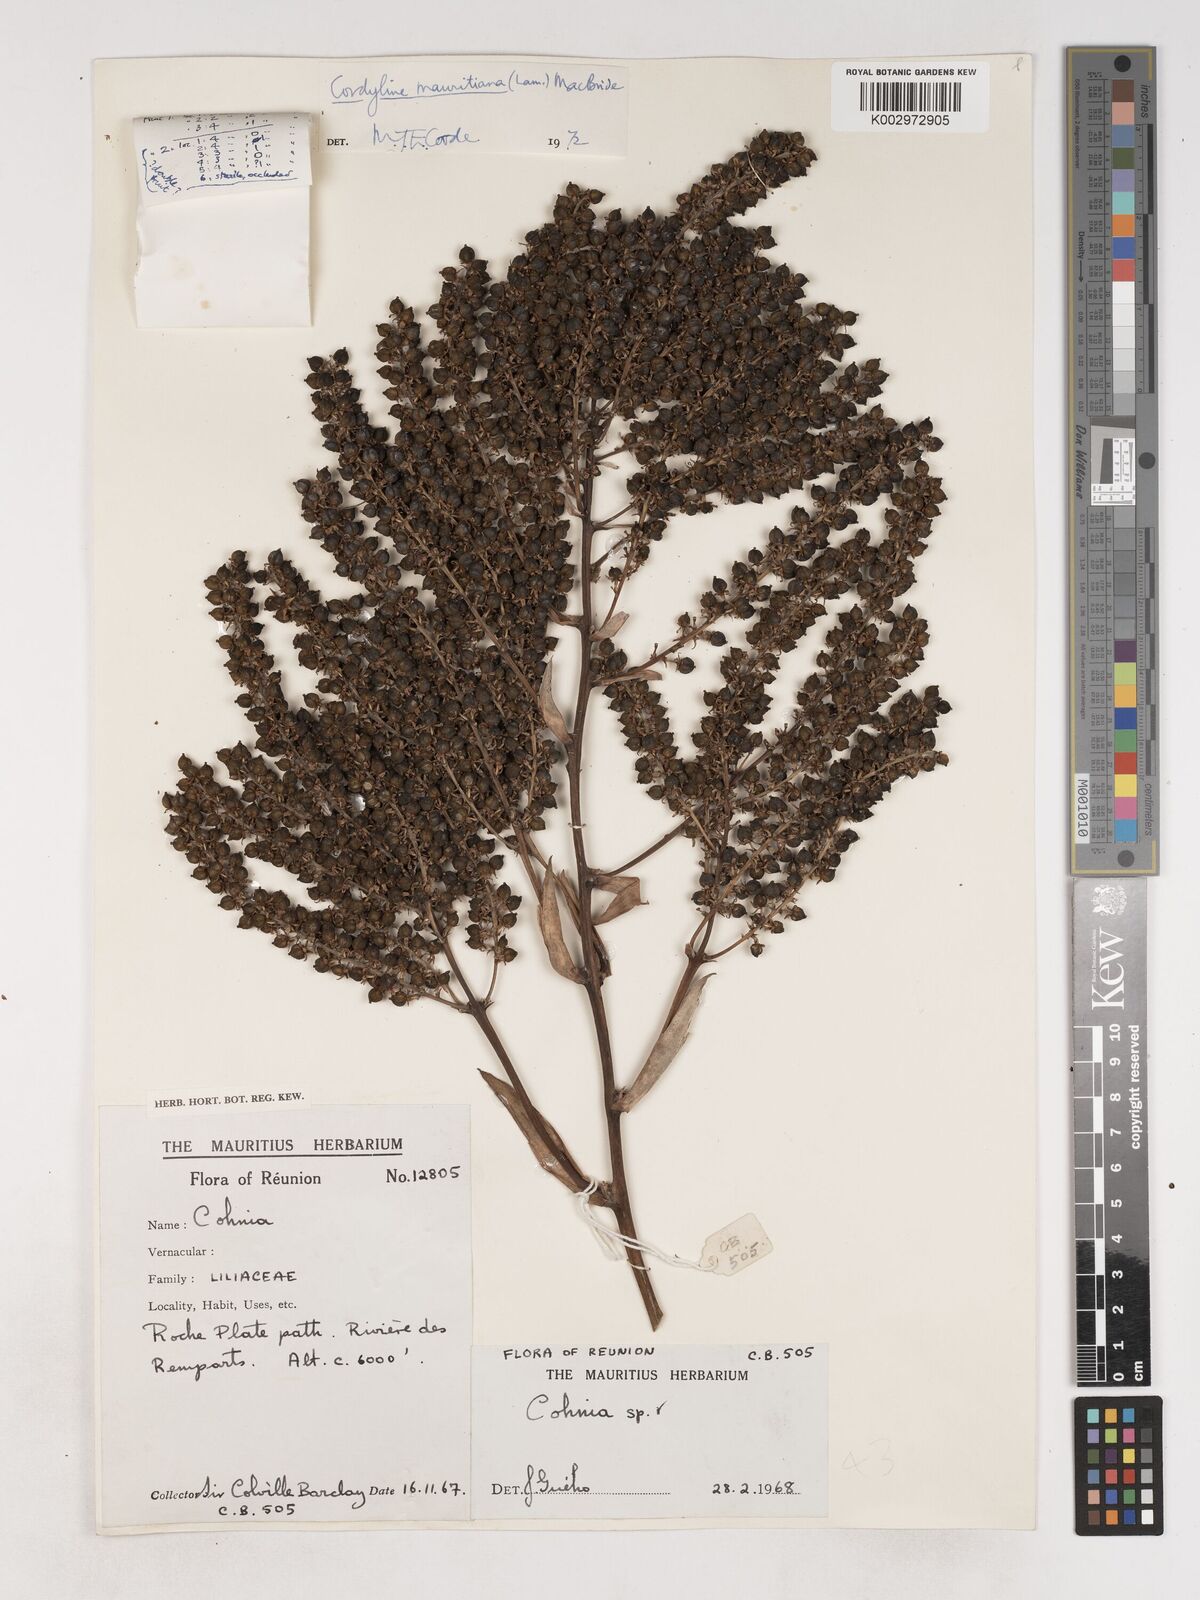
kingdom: Plantae
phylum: Tracheophyta
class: Liliopsida
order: Asparagales
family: Asparagaceae
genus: Cordyline
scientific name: Cordyline mauritiana
